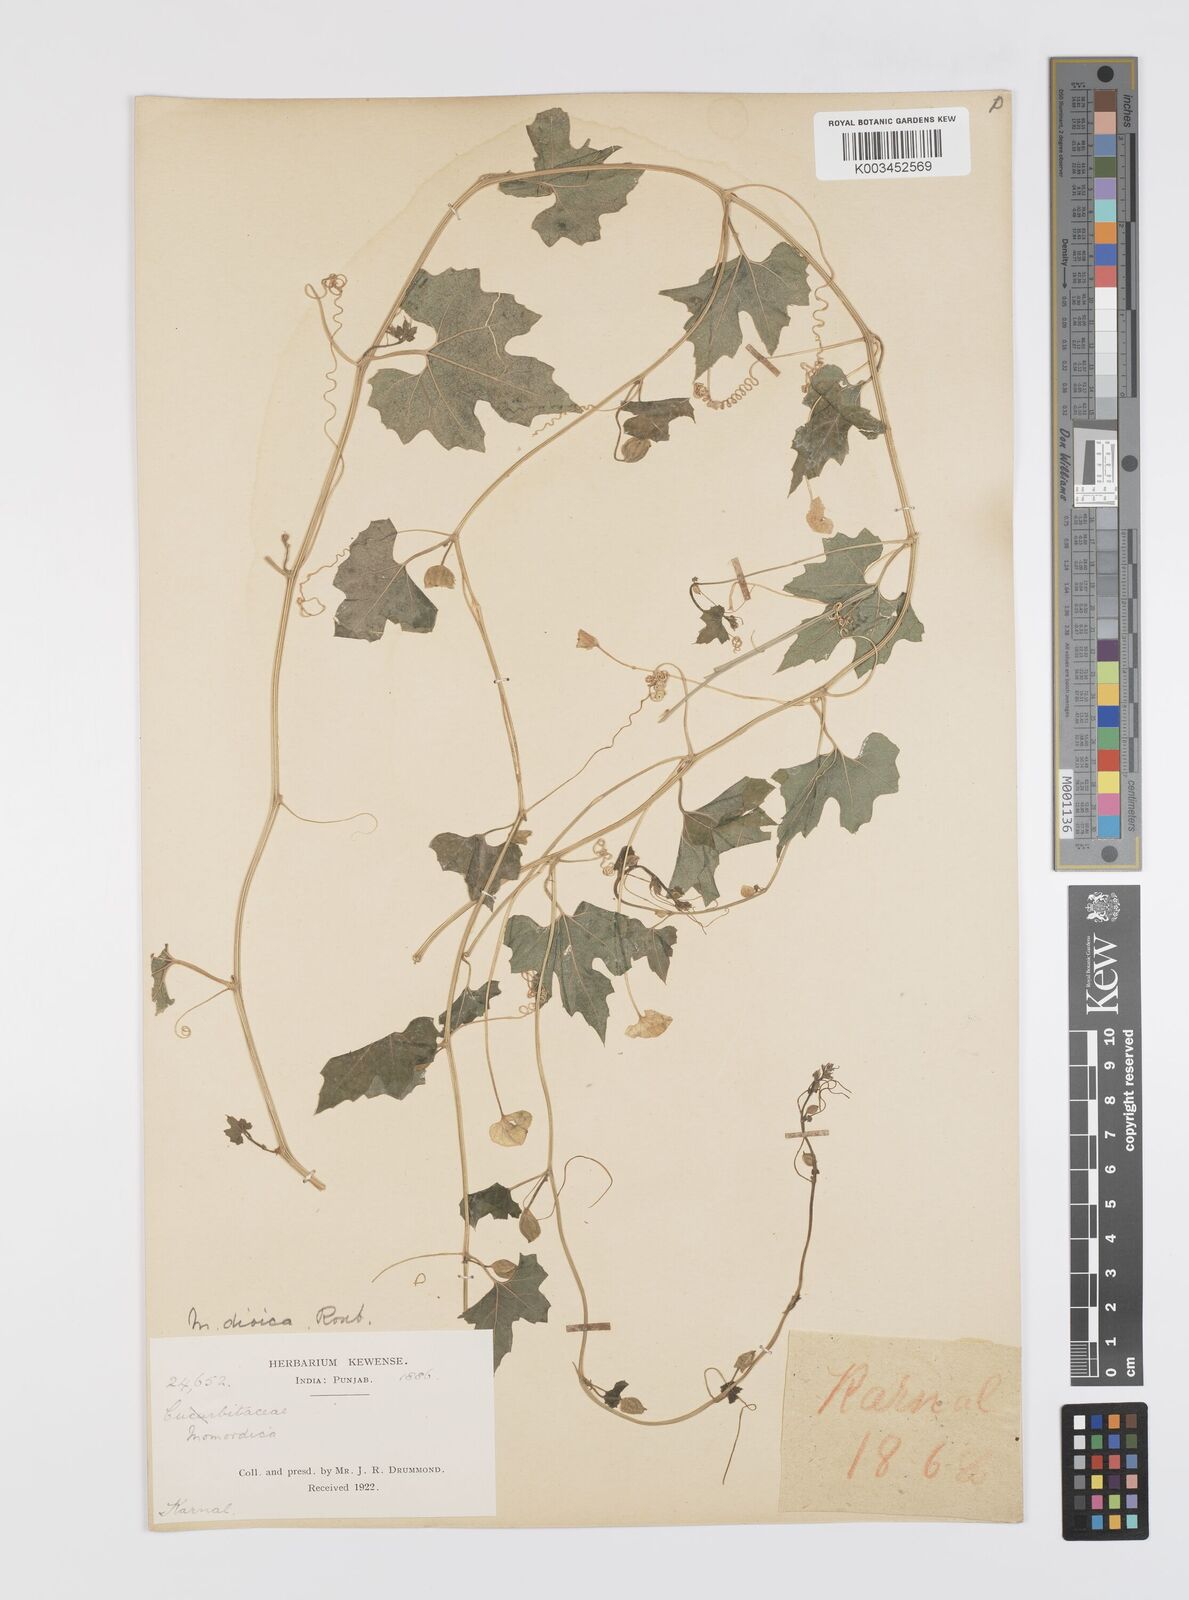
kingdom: Plantae
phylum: Tracheophyta
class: Magnoliopsida
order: Cucurbitales
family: Cucurbitaceae
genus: Momordica
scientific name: Momordica dioica
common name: Spine gourd
